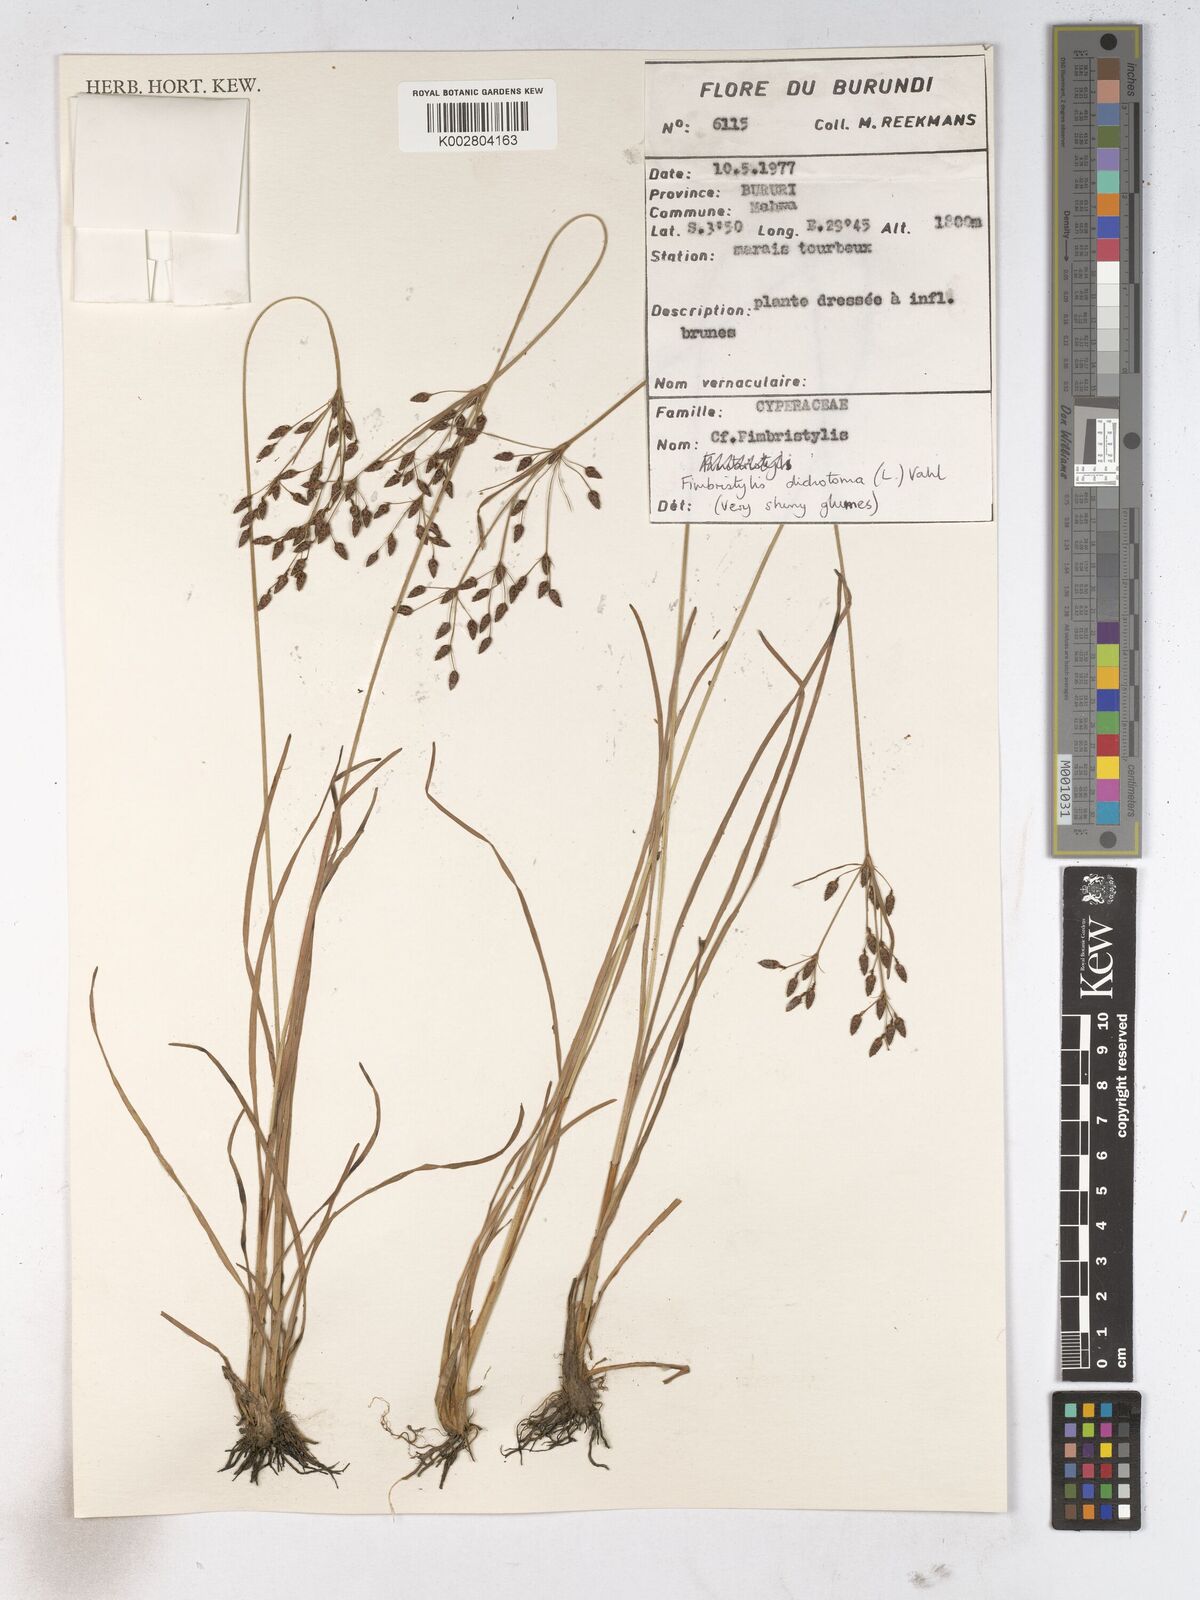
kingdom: Plantae
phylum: Tracheophyta
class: Liliopsida
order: Poales
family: Cyperaceae
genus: Fimbristylis
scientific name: Fimbristylis dichotoma
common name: Forked fimbry
